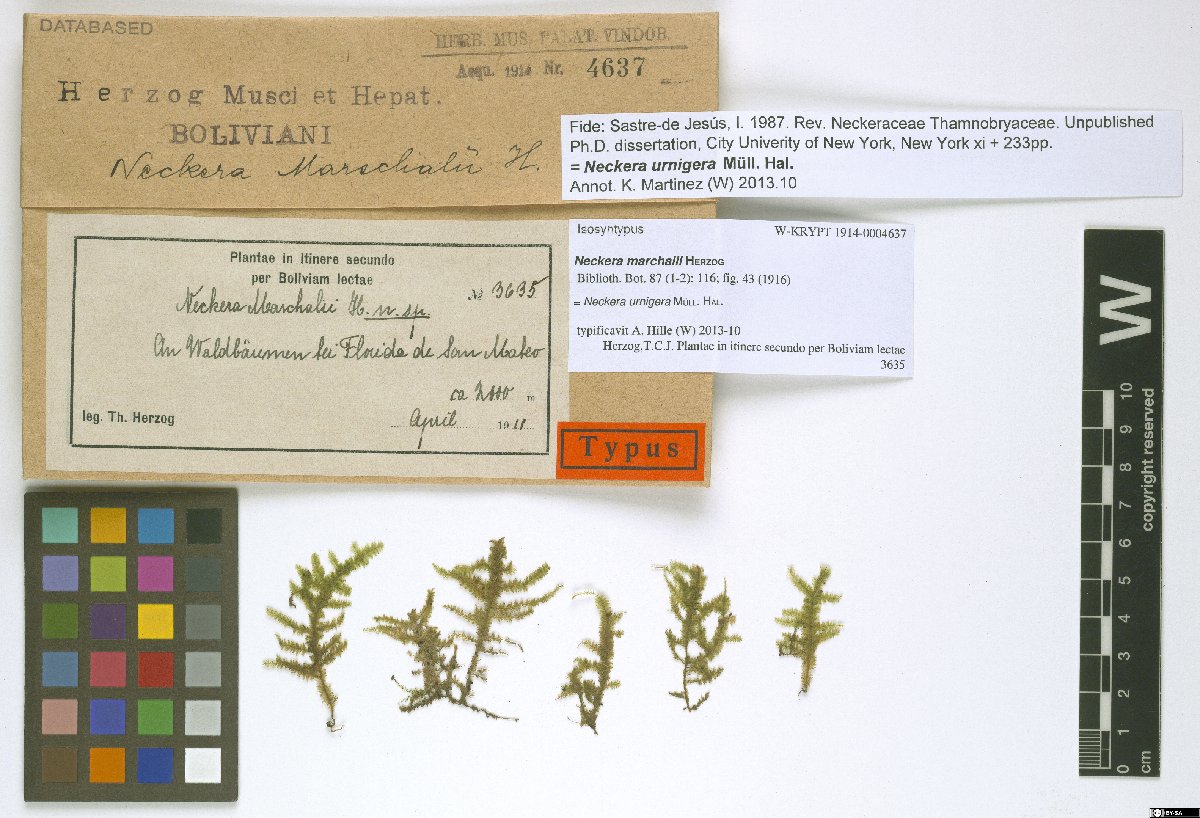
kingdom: Plantae
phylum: Bryophyta
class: Bryopsida
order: Hypnales
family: Neckeraceae
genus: Alleniella
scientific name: Alleniella urnigera
